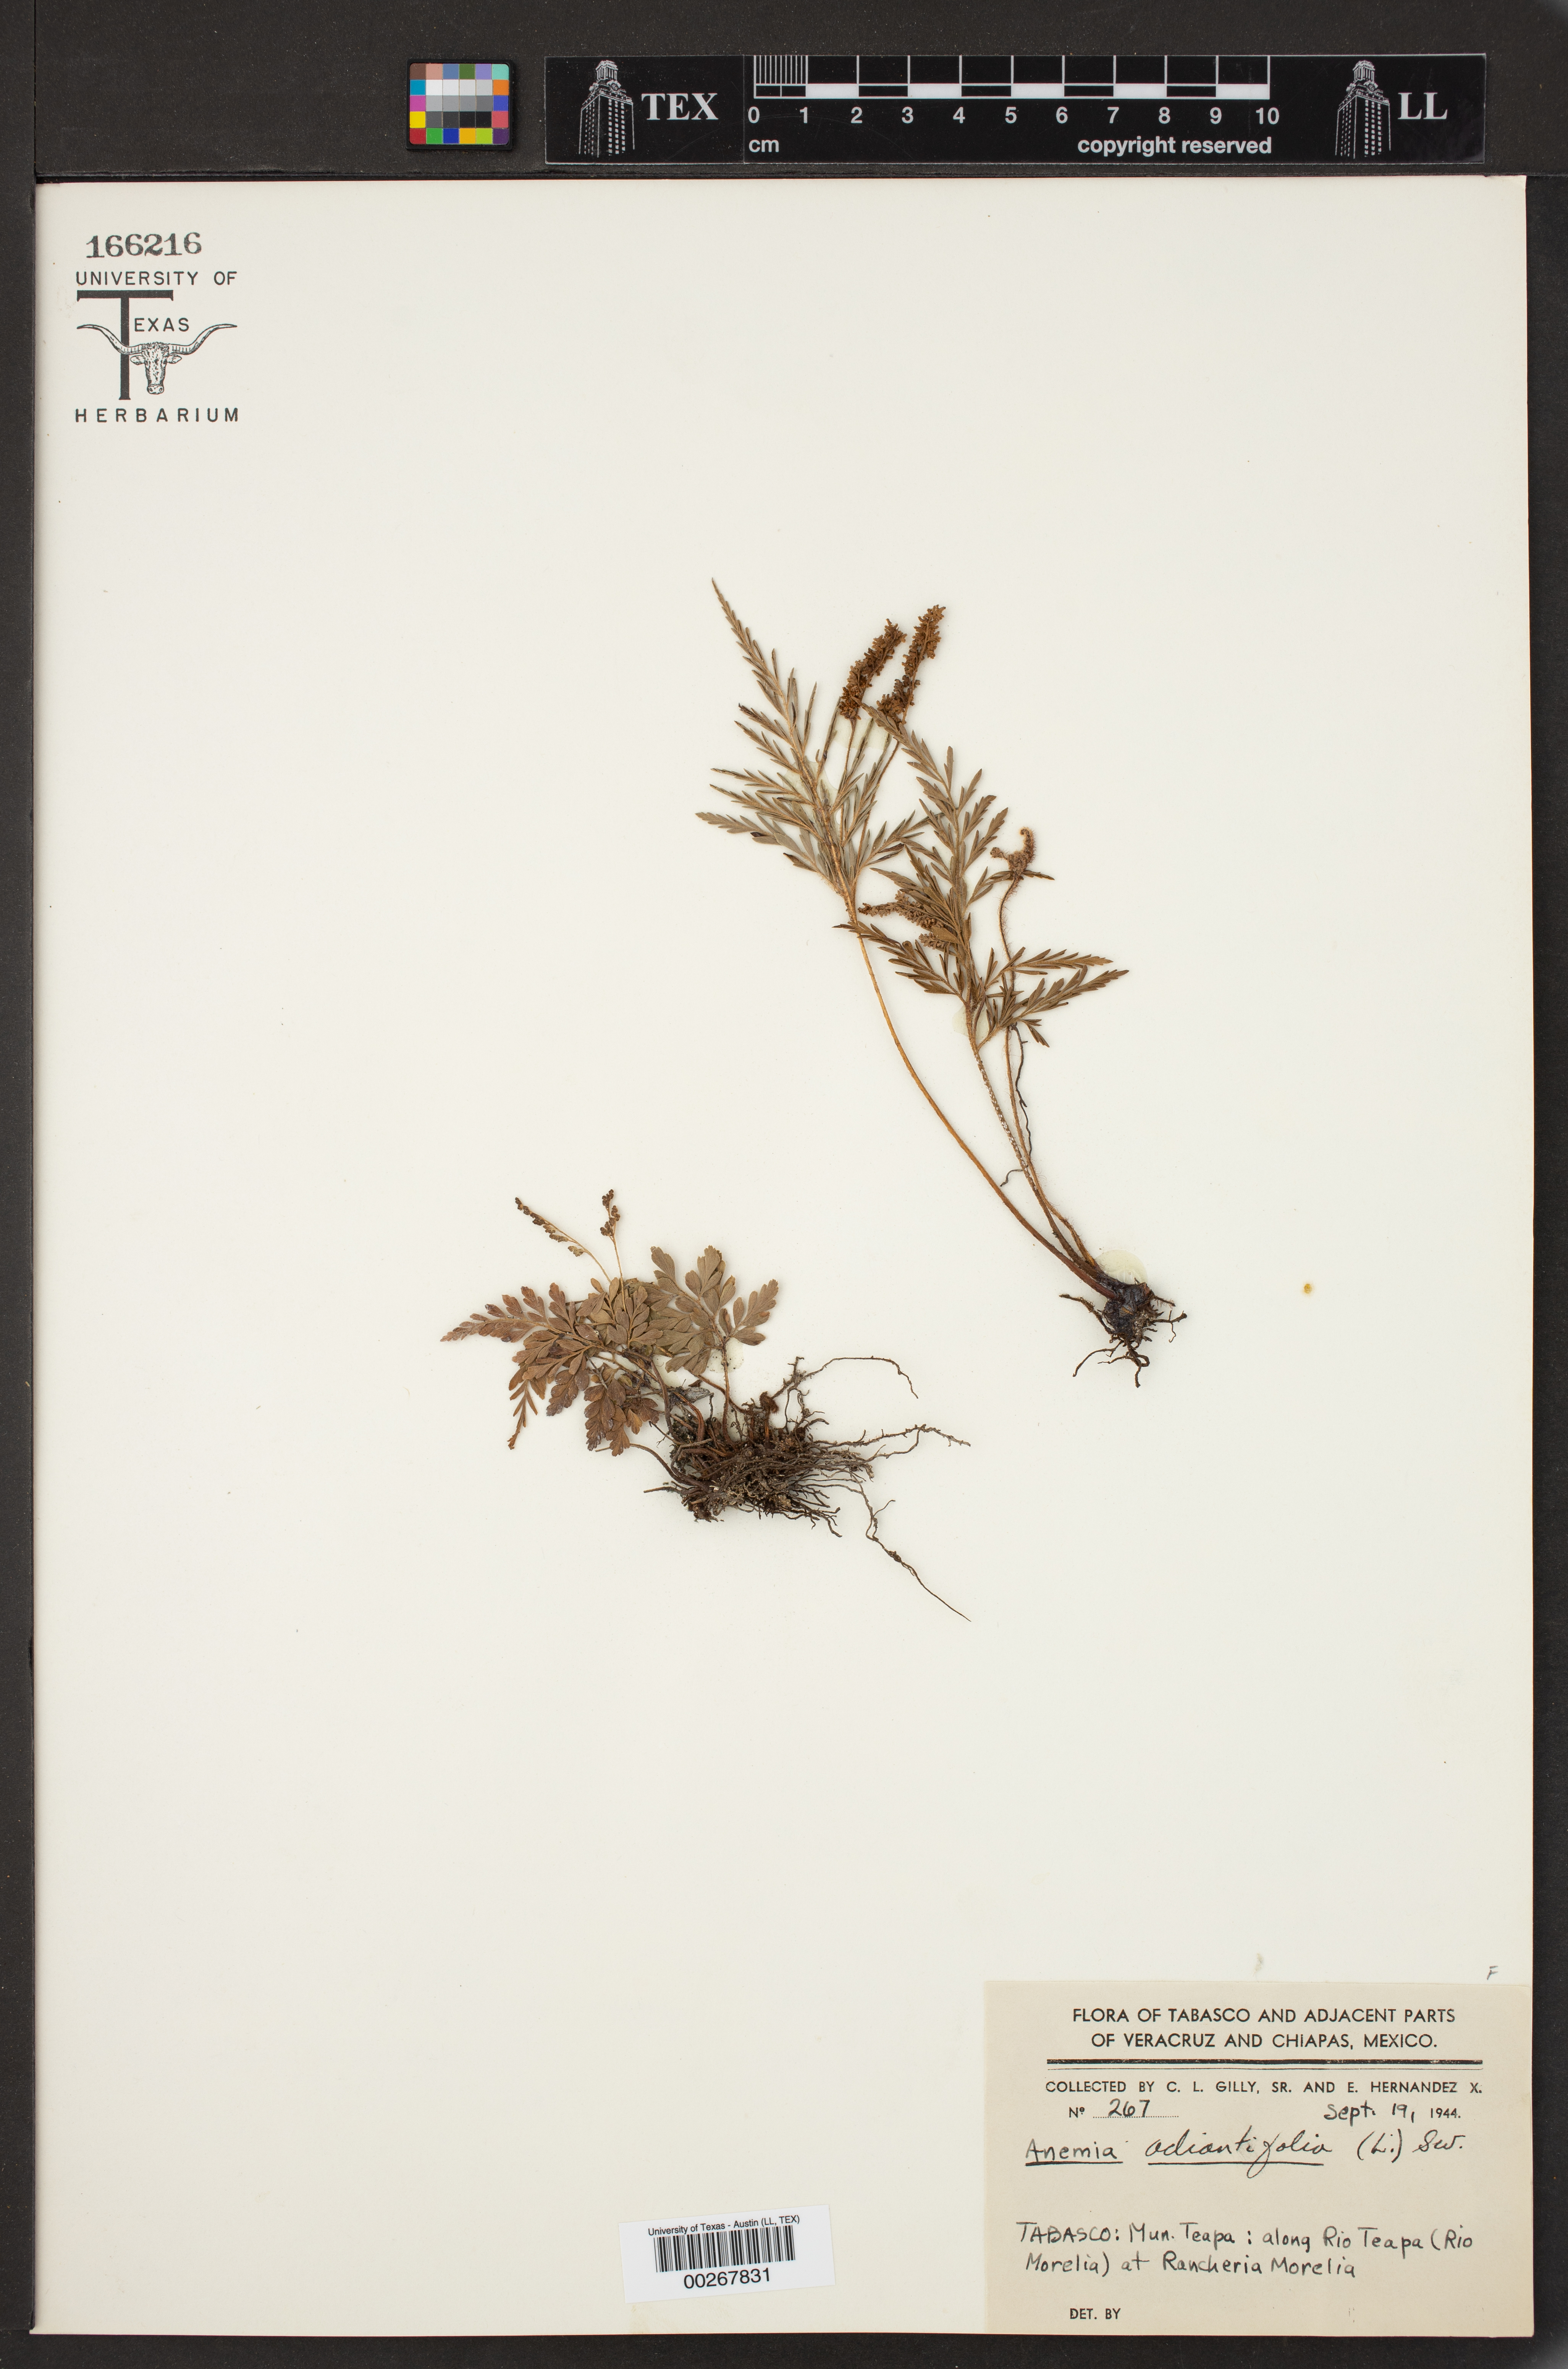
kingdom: Plantae
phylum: Tracheophyta
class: Polypodiopsida
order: Schizaeales
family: Anemiaceae
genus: Anemia
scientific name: Anemia adiantifolia
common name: Pine fern
